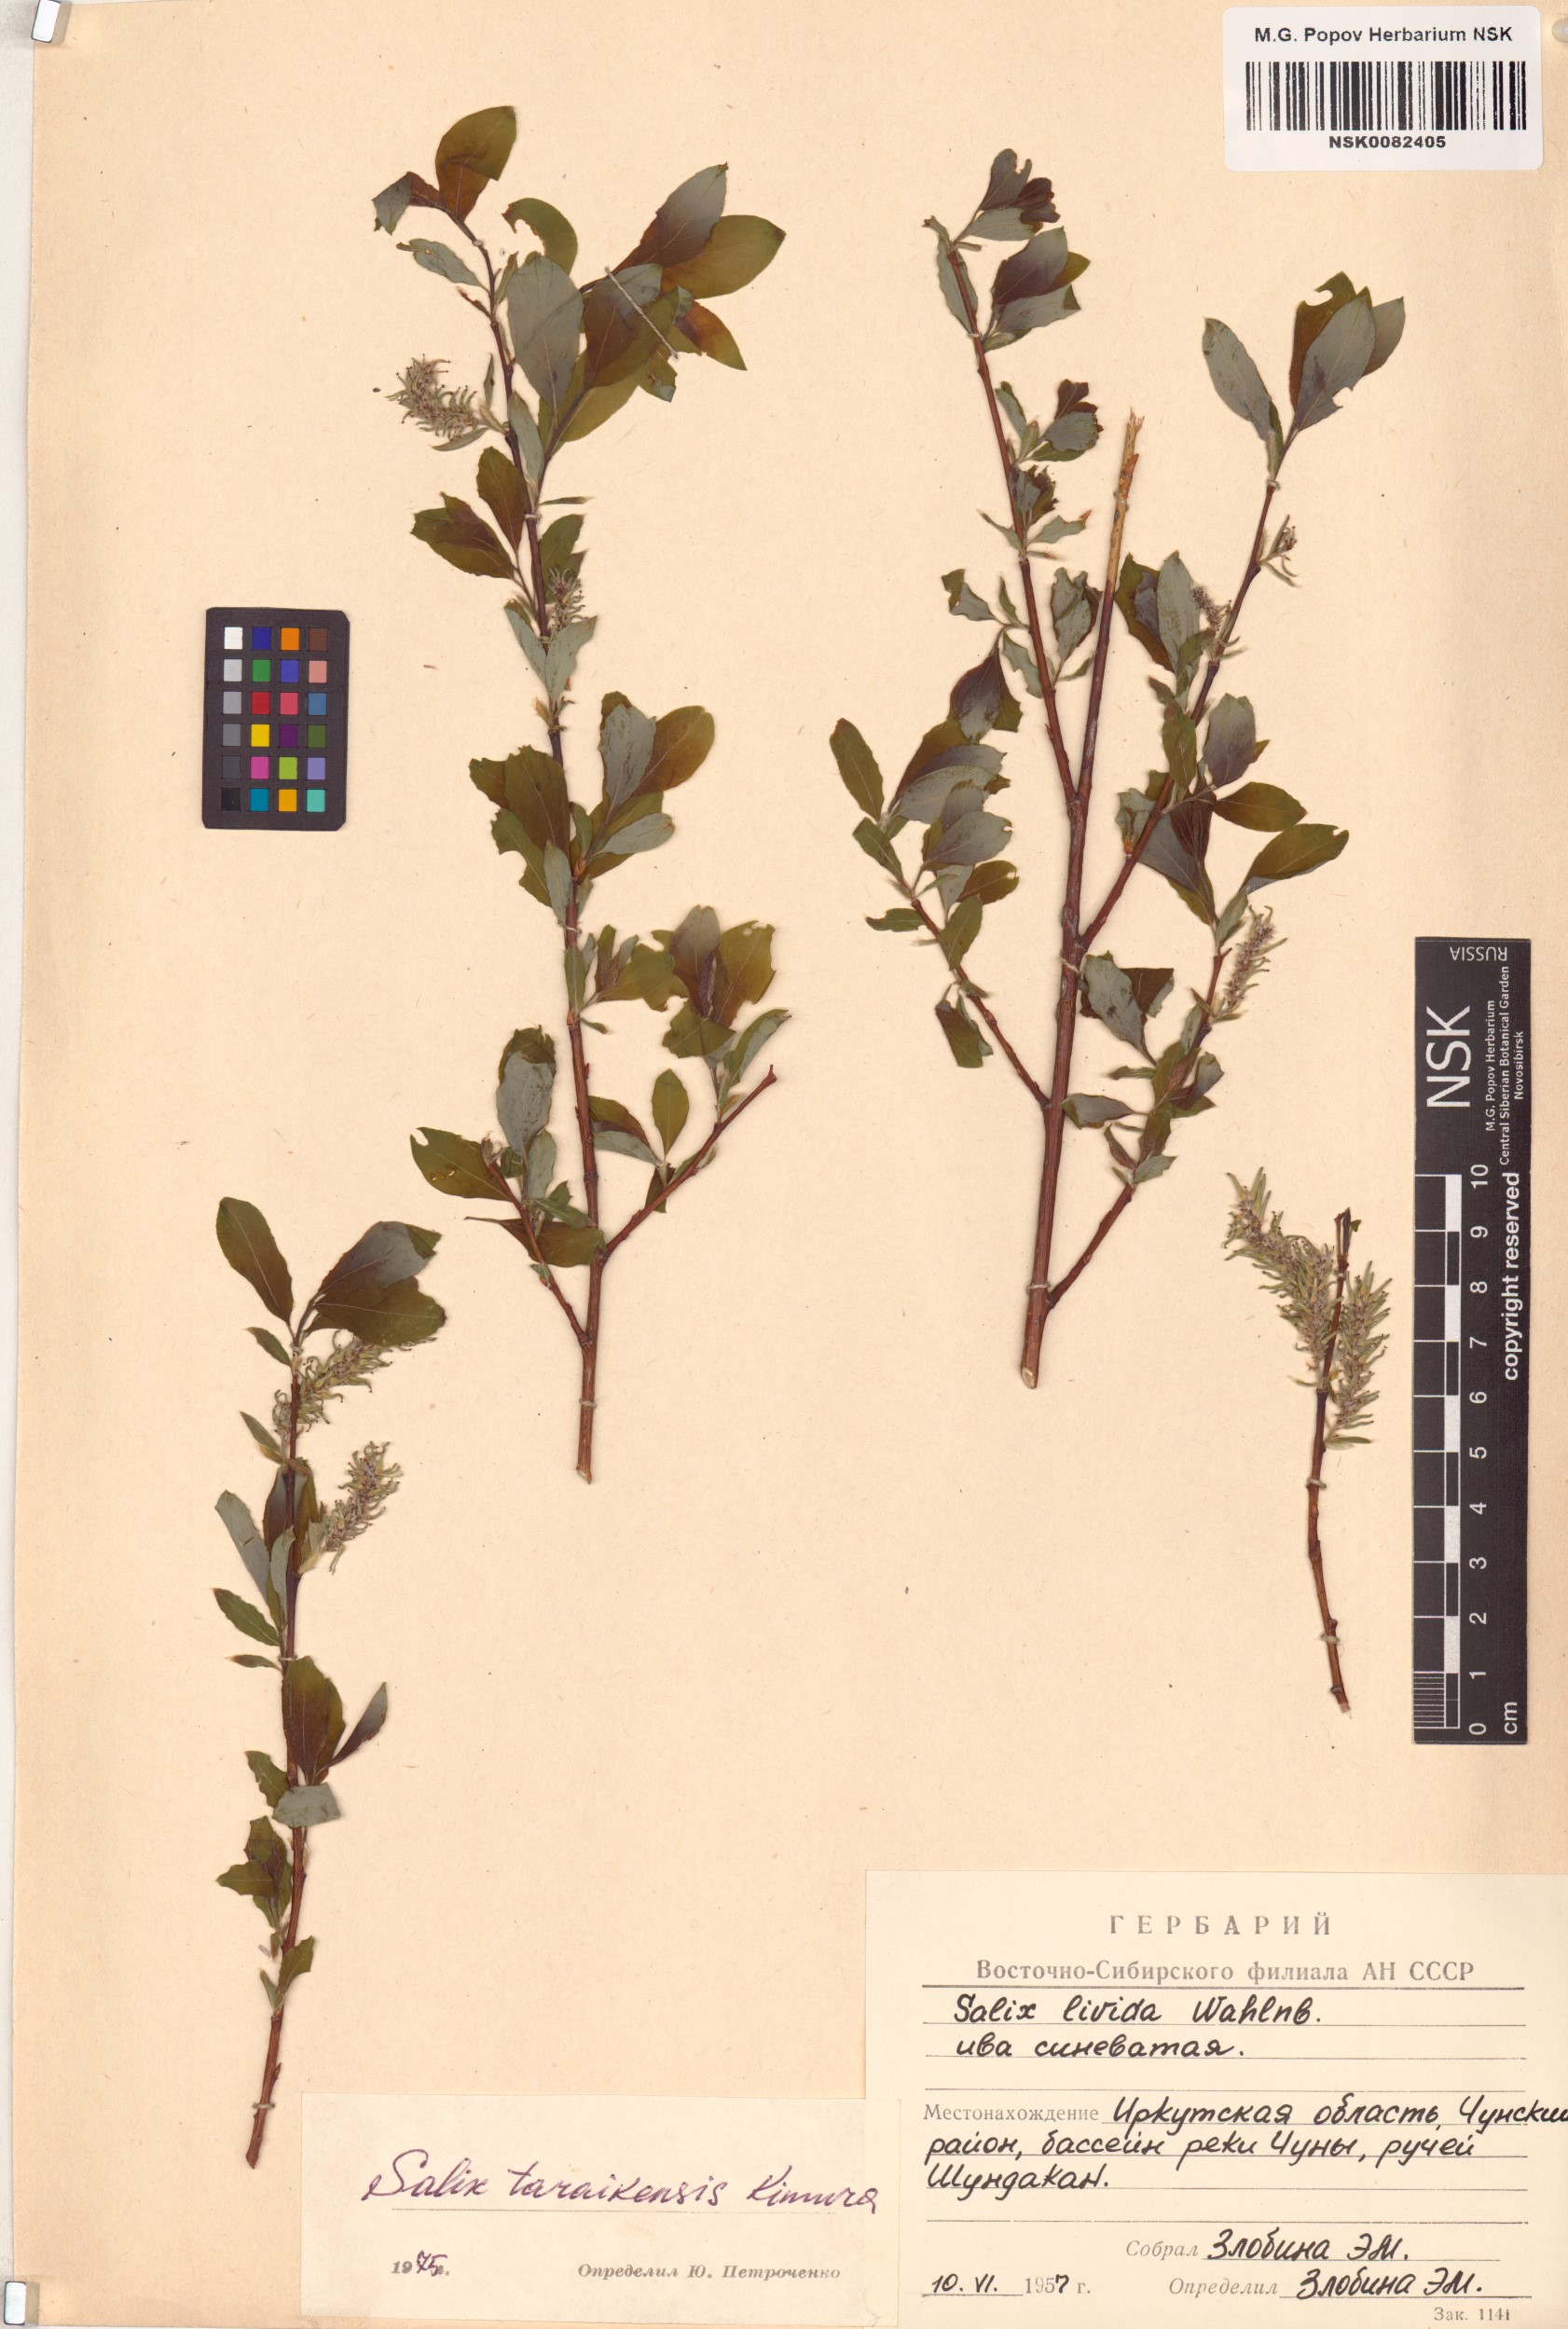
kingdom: Plantae
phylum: Tracheophyta
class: Magnoliopsida
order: Malpighiales
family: Salicaceae
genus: Salix
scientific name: Salix taraikensis
